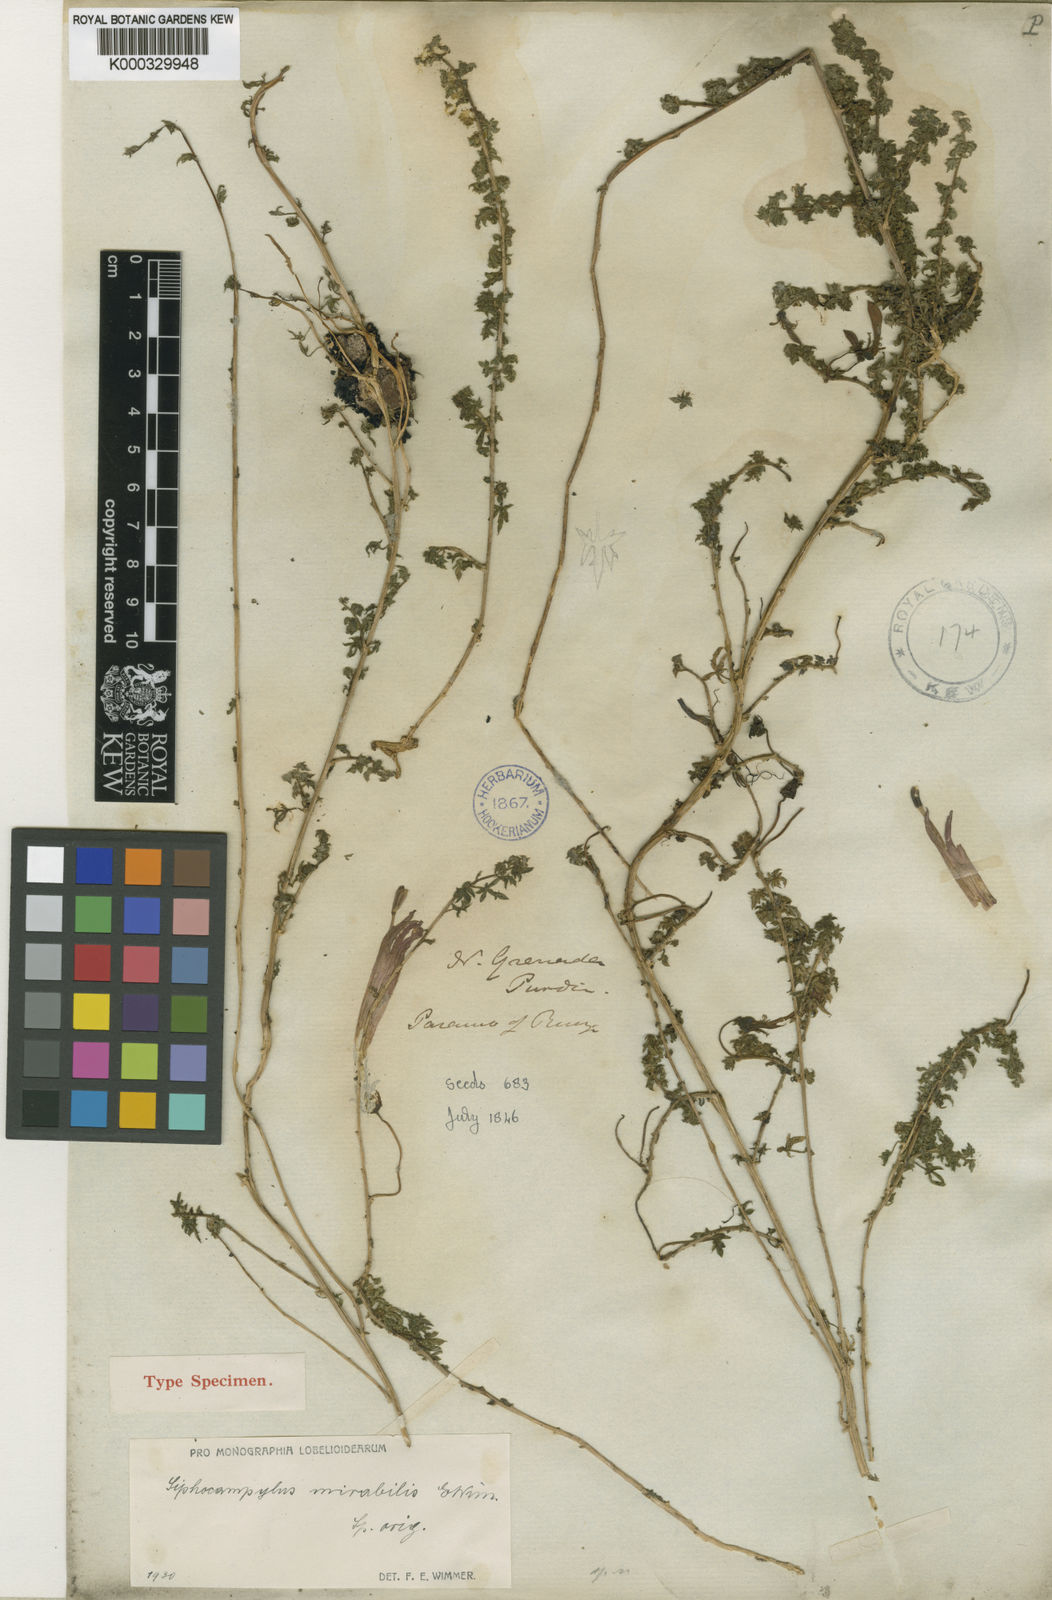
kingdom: Plantae
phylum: Tracheophyta
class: Magnoliopsida
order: Asterales
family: Campanulaceae
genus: Siphocampylus
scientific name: Siphocampylus mirabilis
